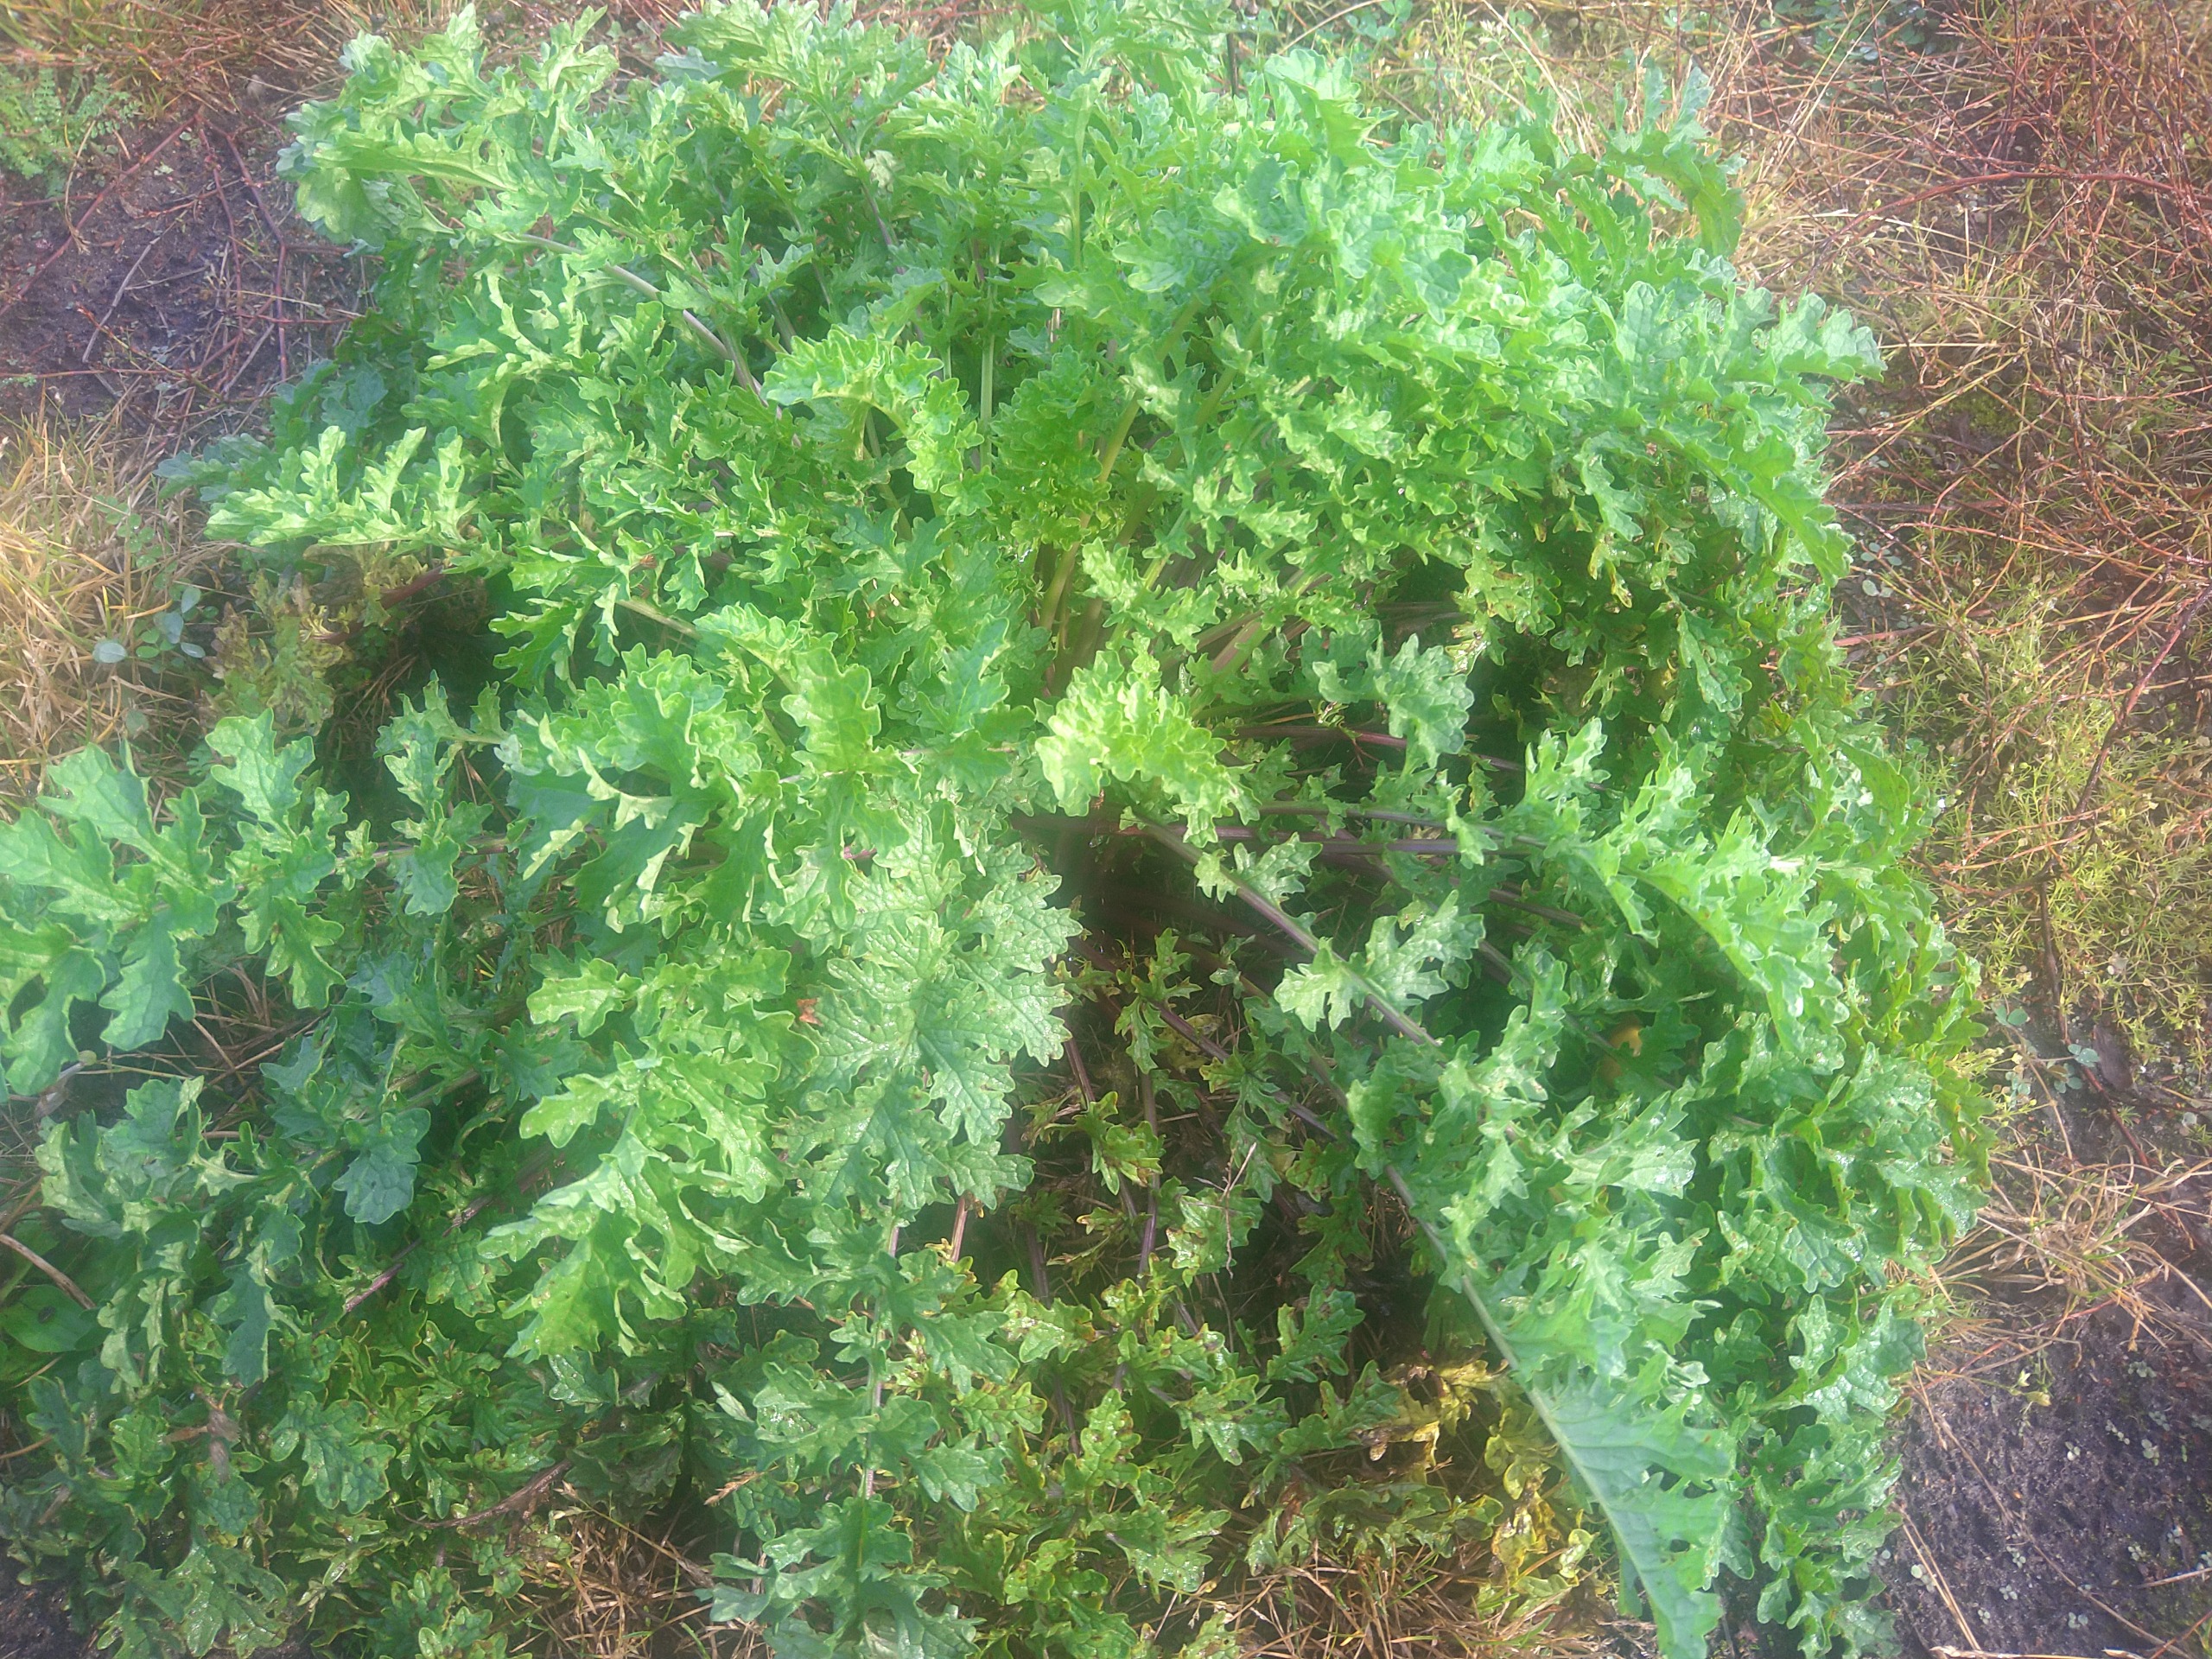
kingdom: Plantae
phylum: Tracheophyta
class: Magnoliopsida
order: Asterales
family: Asteraceae
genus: Jacobaea
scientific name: Jacobaea vulgaris
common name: Eng-brandbæger
